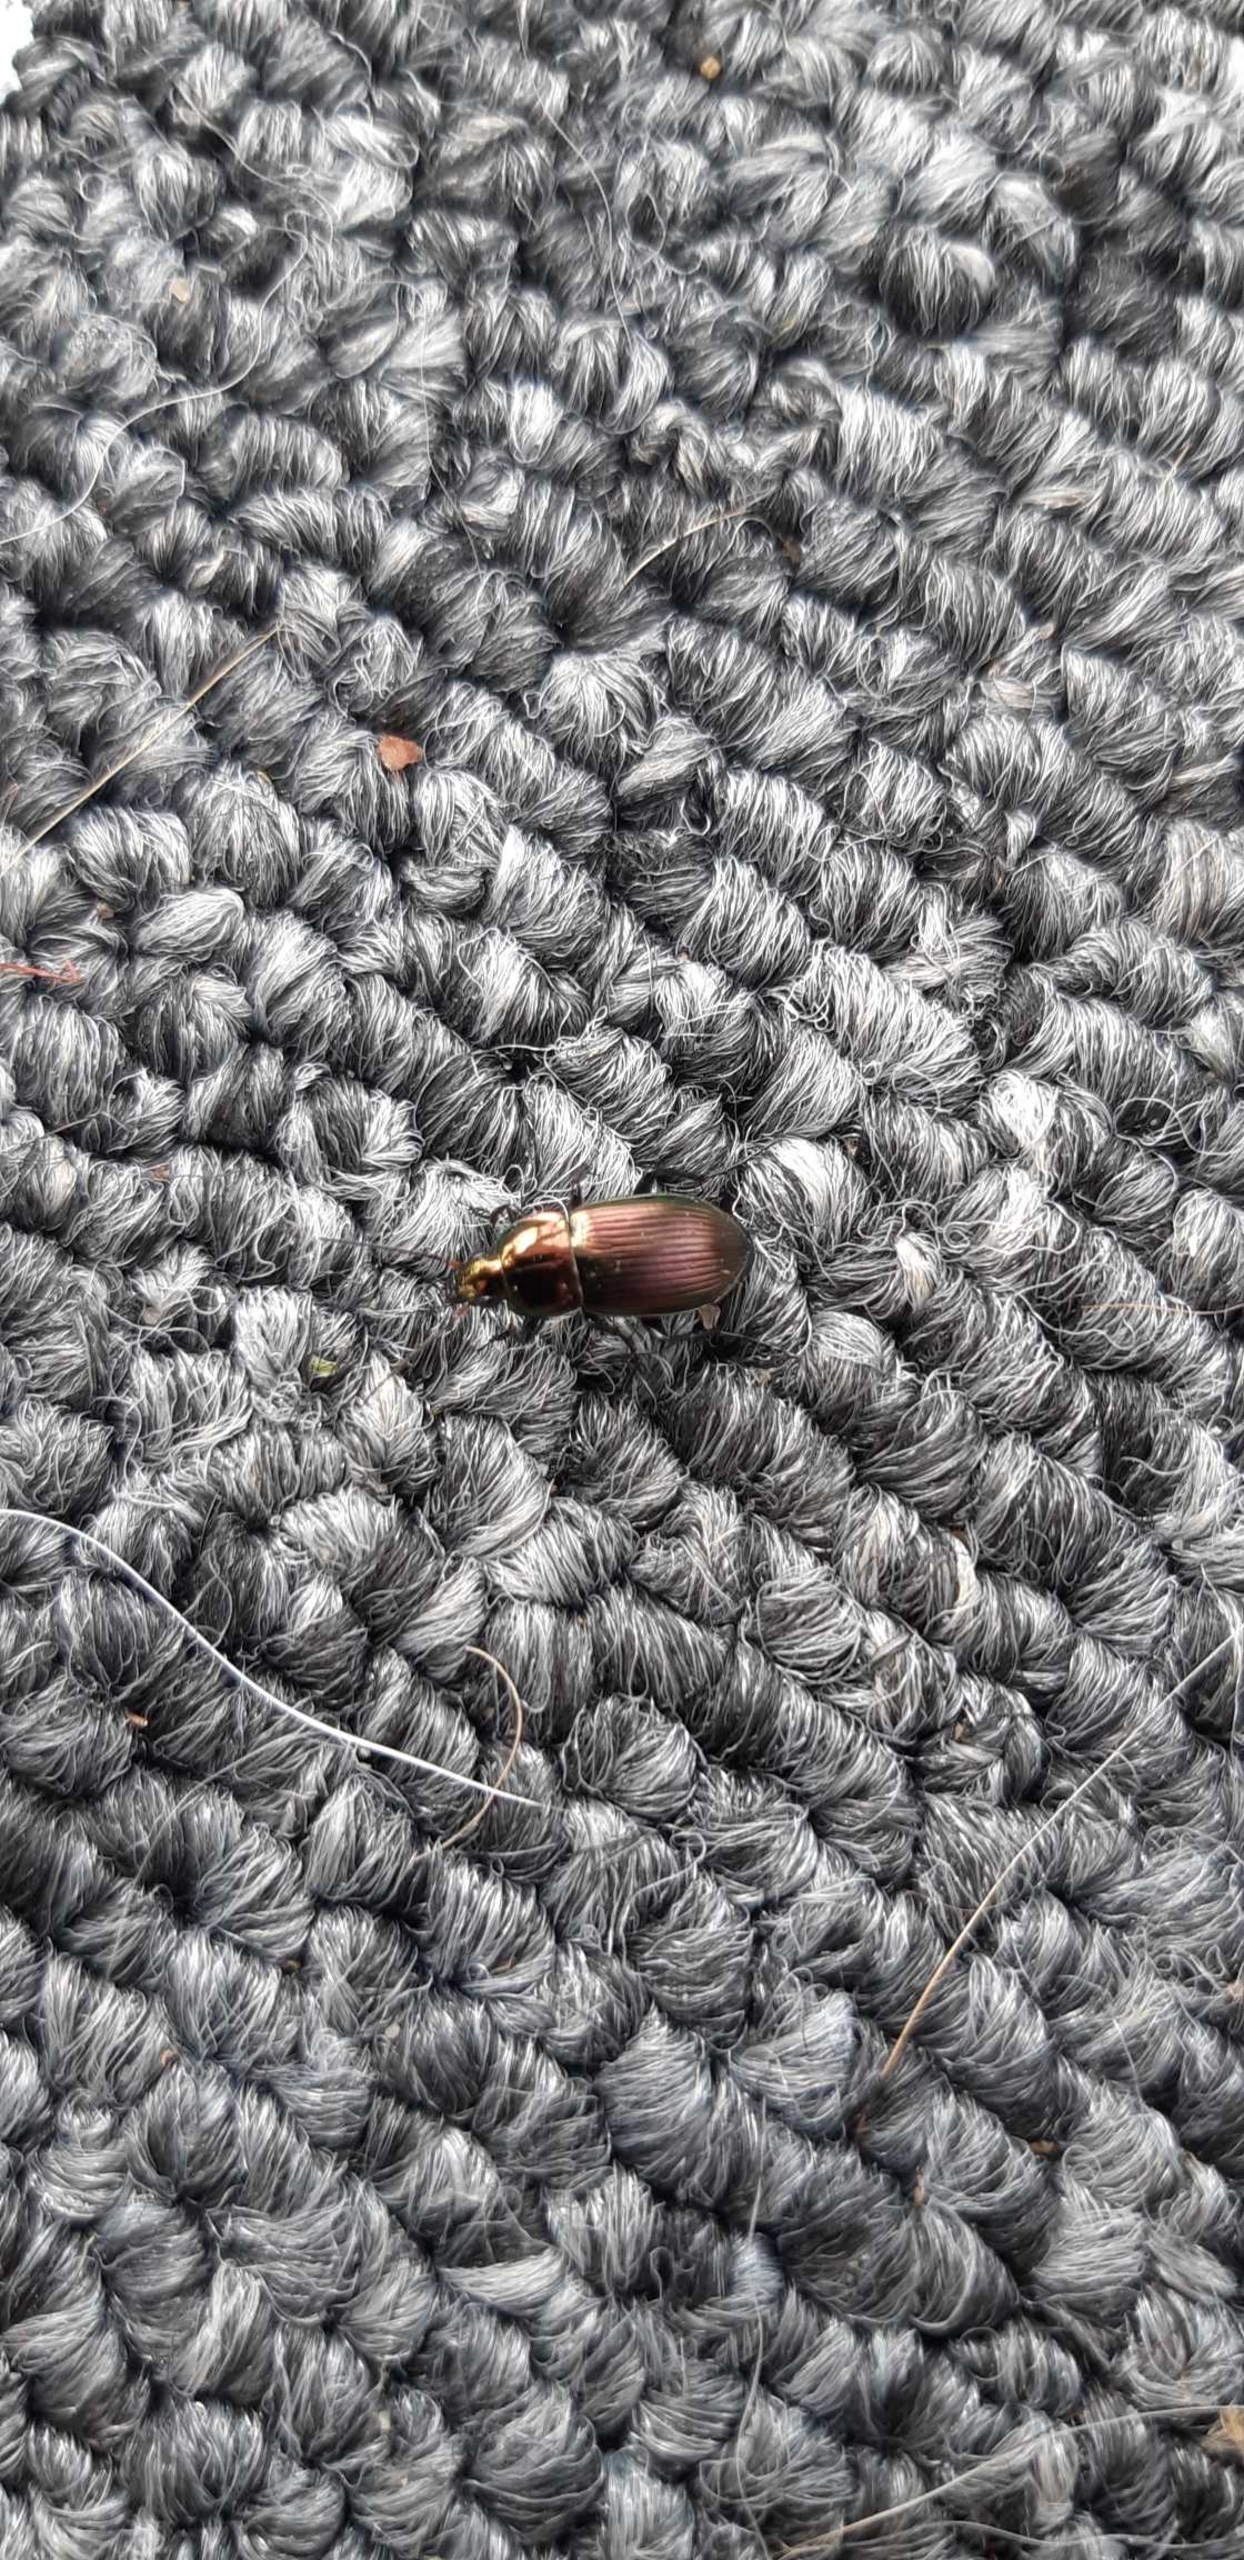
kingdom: Animalia
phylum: Arthropoda
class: Insecta
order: Coleoptera
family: Carabidae
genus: Poecilus
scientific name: Poecilus
